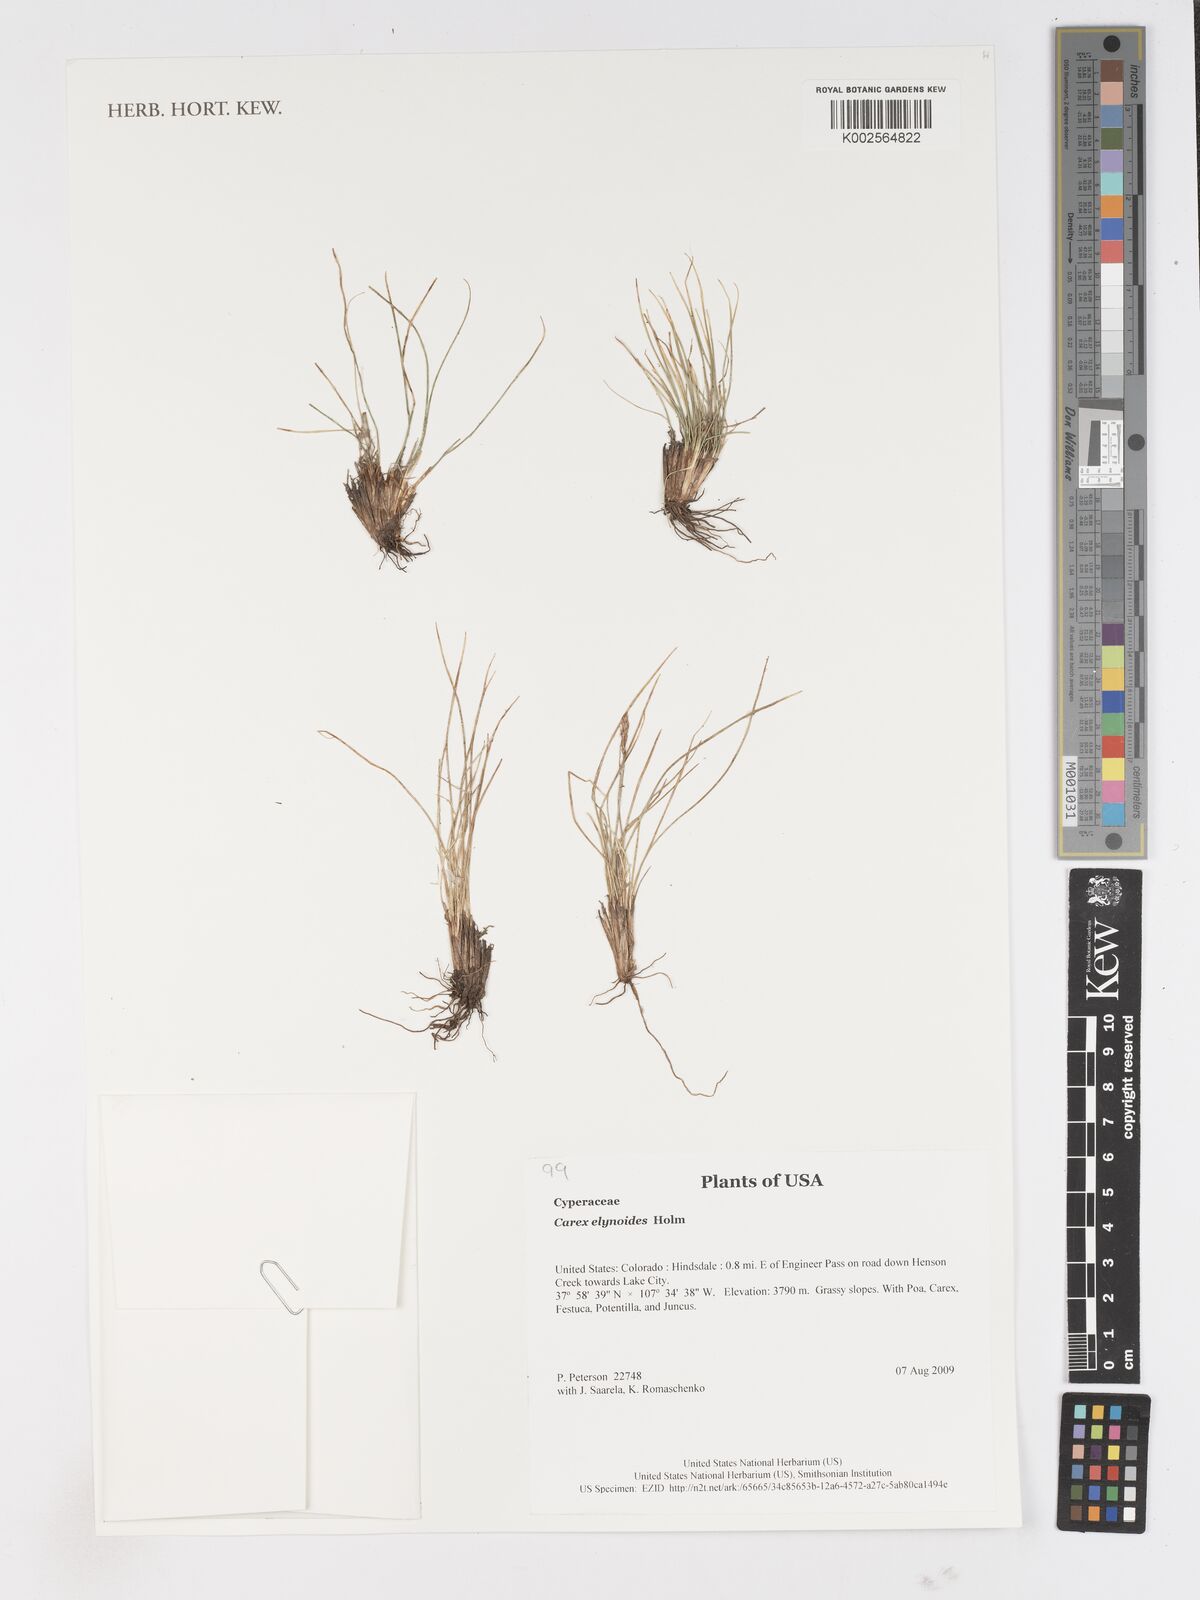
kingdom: Plantae
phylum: Tracheophyta
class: Liliopsida
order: Poales
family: Cyperaceae
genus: Carex
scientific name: Carex
